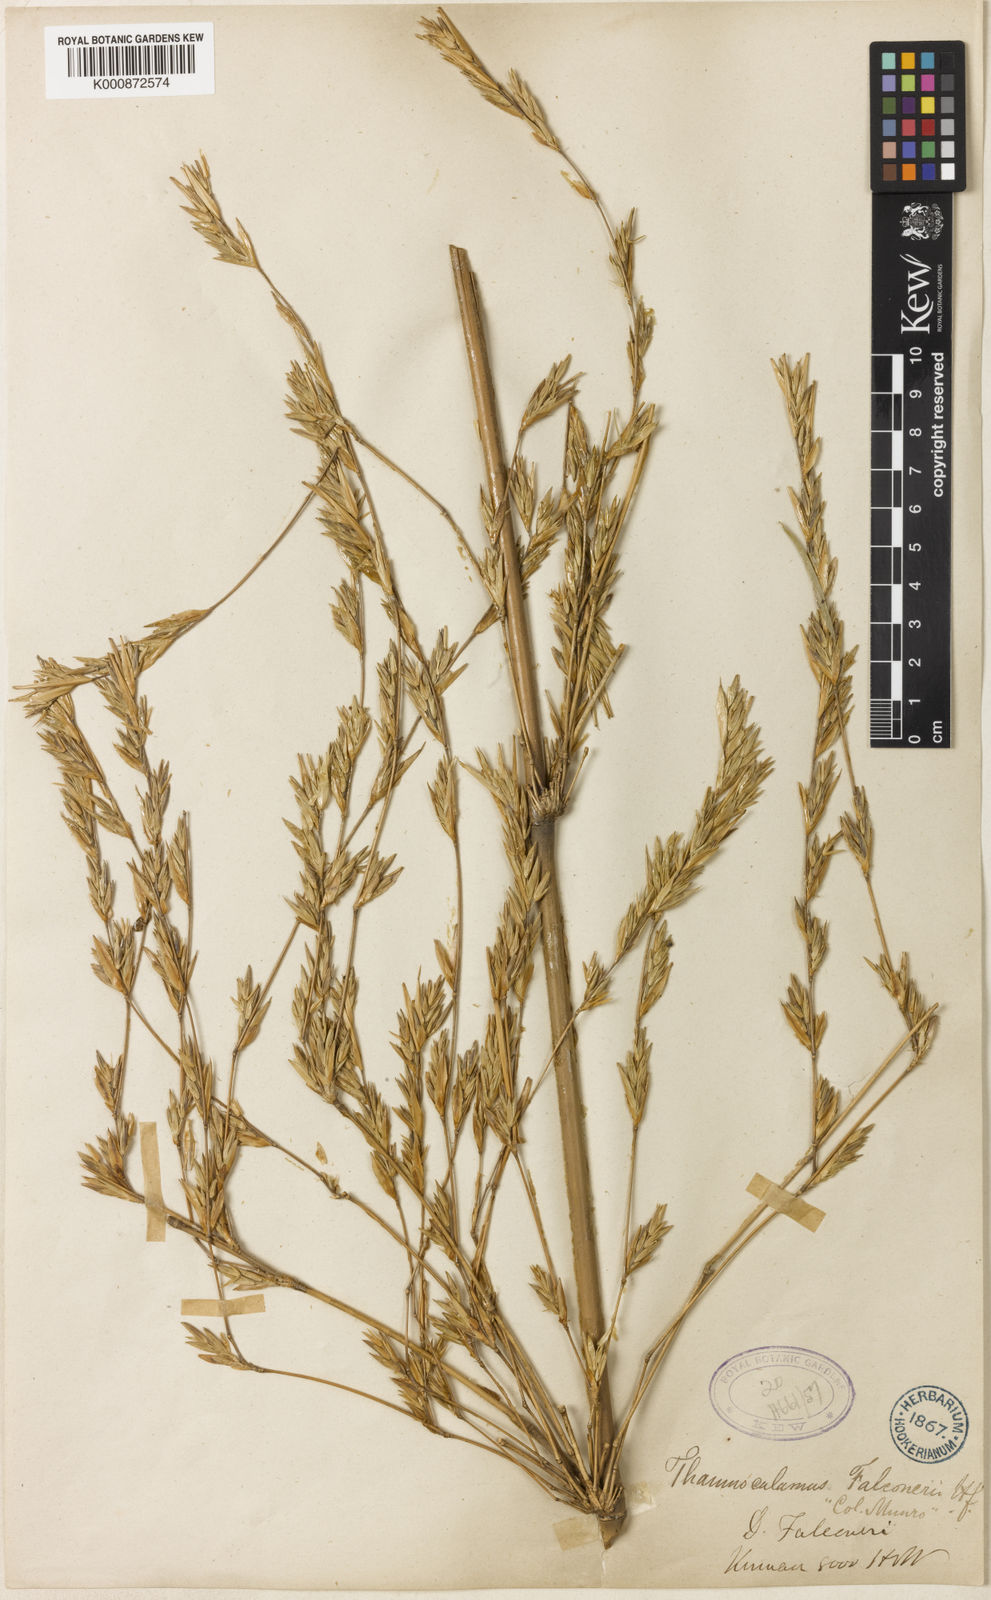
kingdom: Plantae
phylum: Tracheophyta
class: Liliopsida
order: Poales
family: Poaceae
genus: Himalayacalamus
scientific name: Himalayacalamus falconeri
